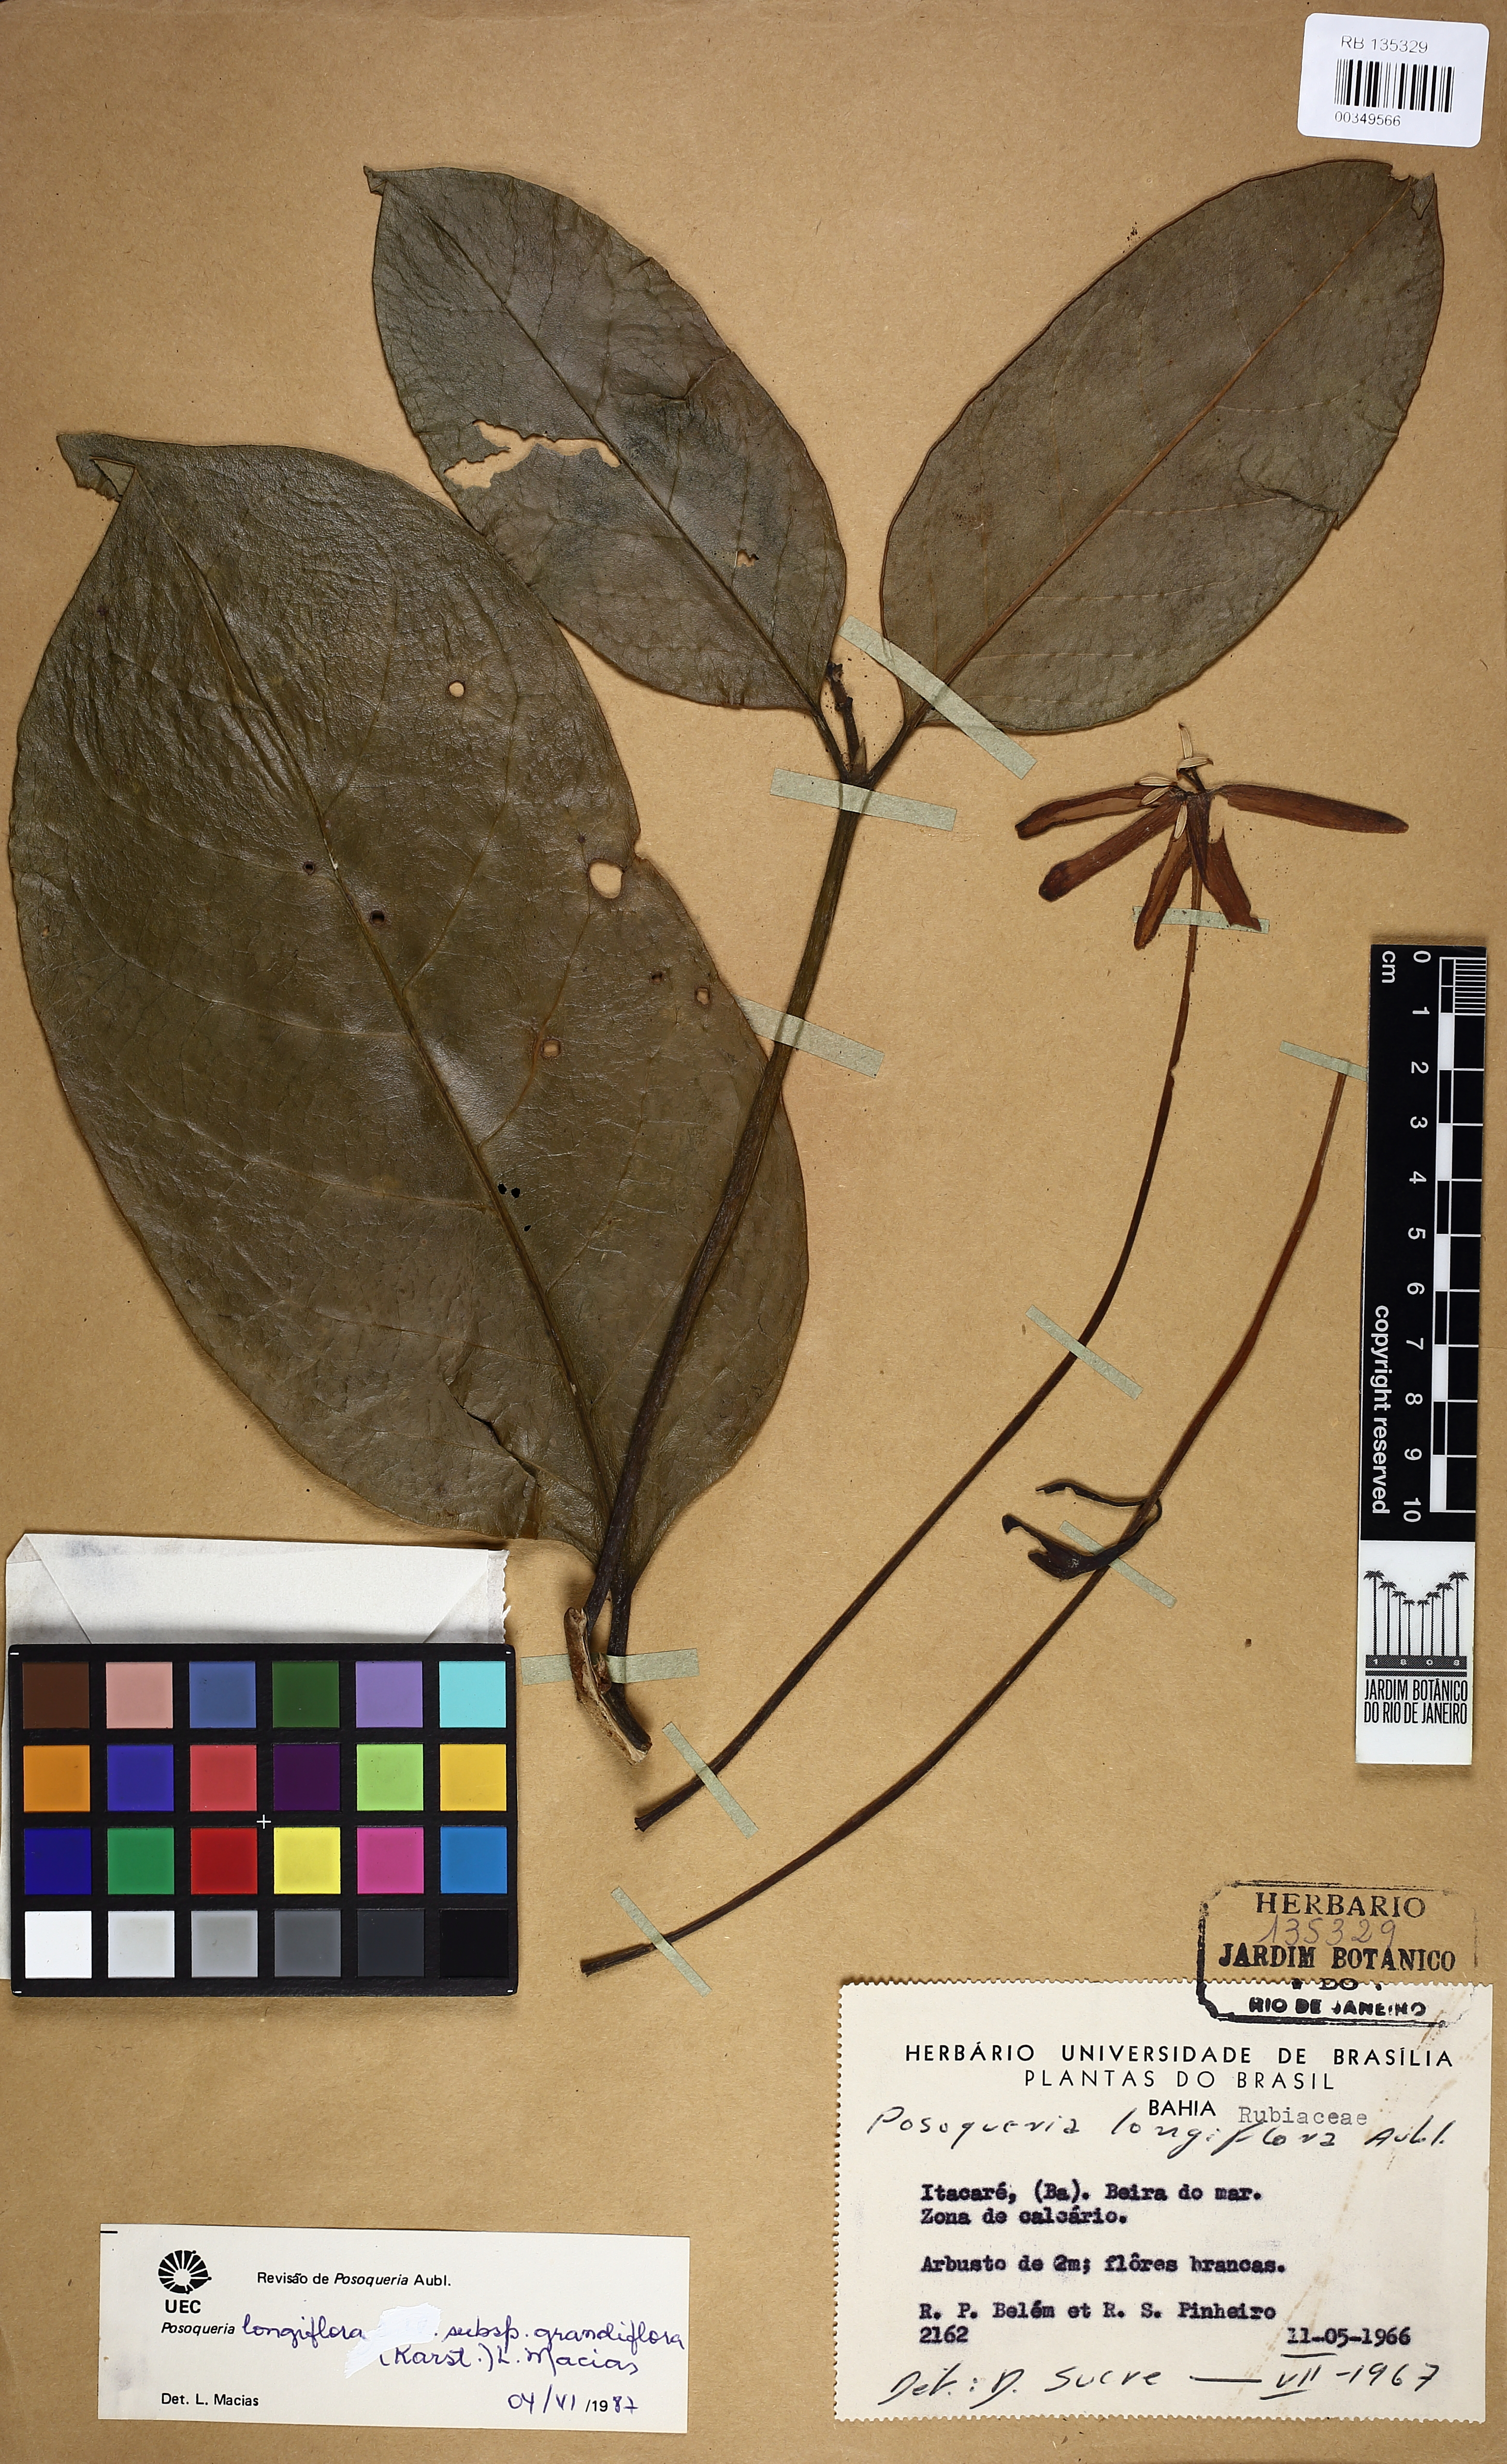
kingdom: Plantae
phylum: Tracheophyta
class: Magnoliopsida
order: Gentianales
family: Rubiaceae
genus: Posoqueria
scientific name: Posoqueria longiflora
